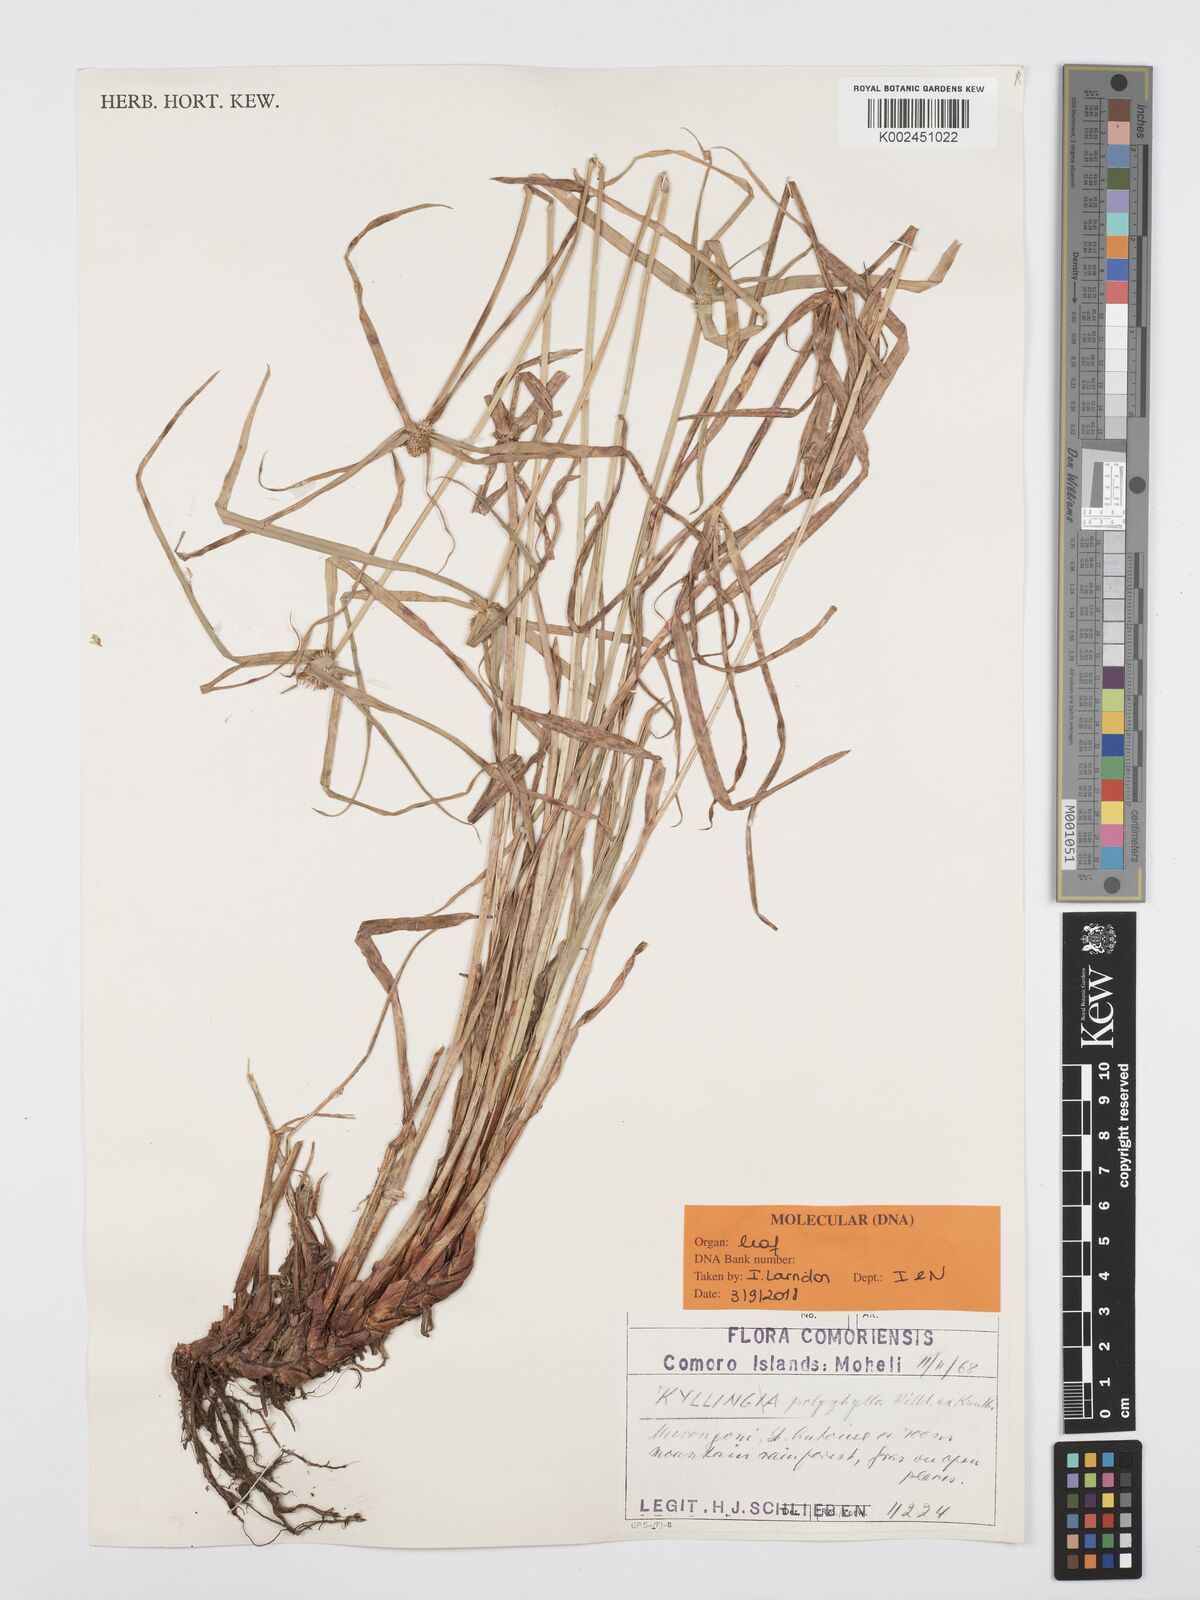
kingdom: Plantae
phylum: Tracheophyta
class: Liliopsida
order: Poales
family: Cyperaceae
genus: Cyperus
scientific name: Cyperus bulbosus
